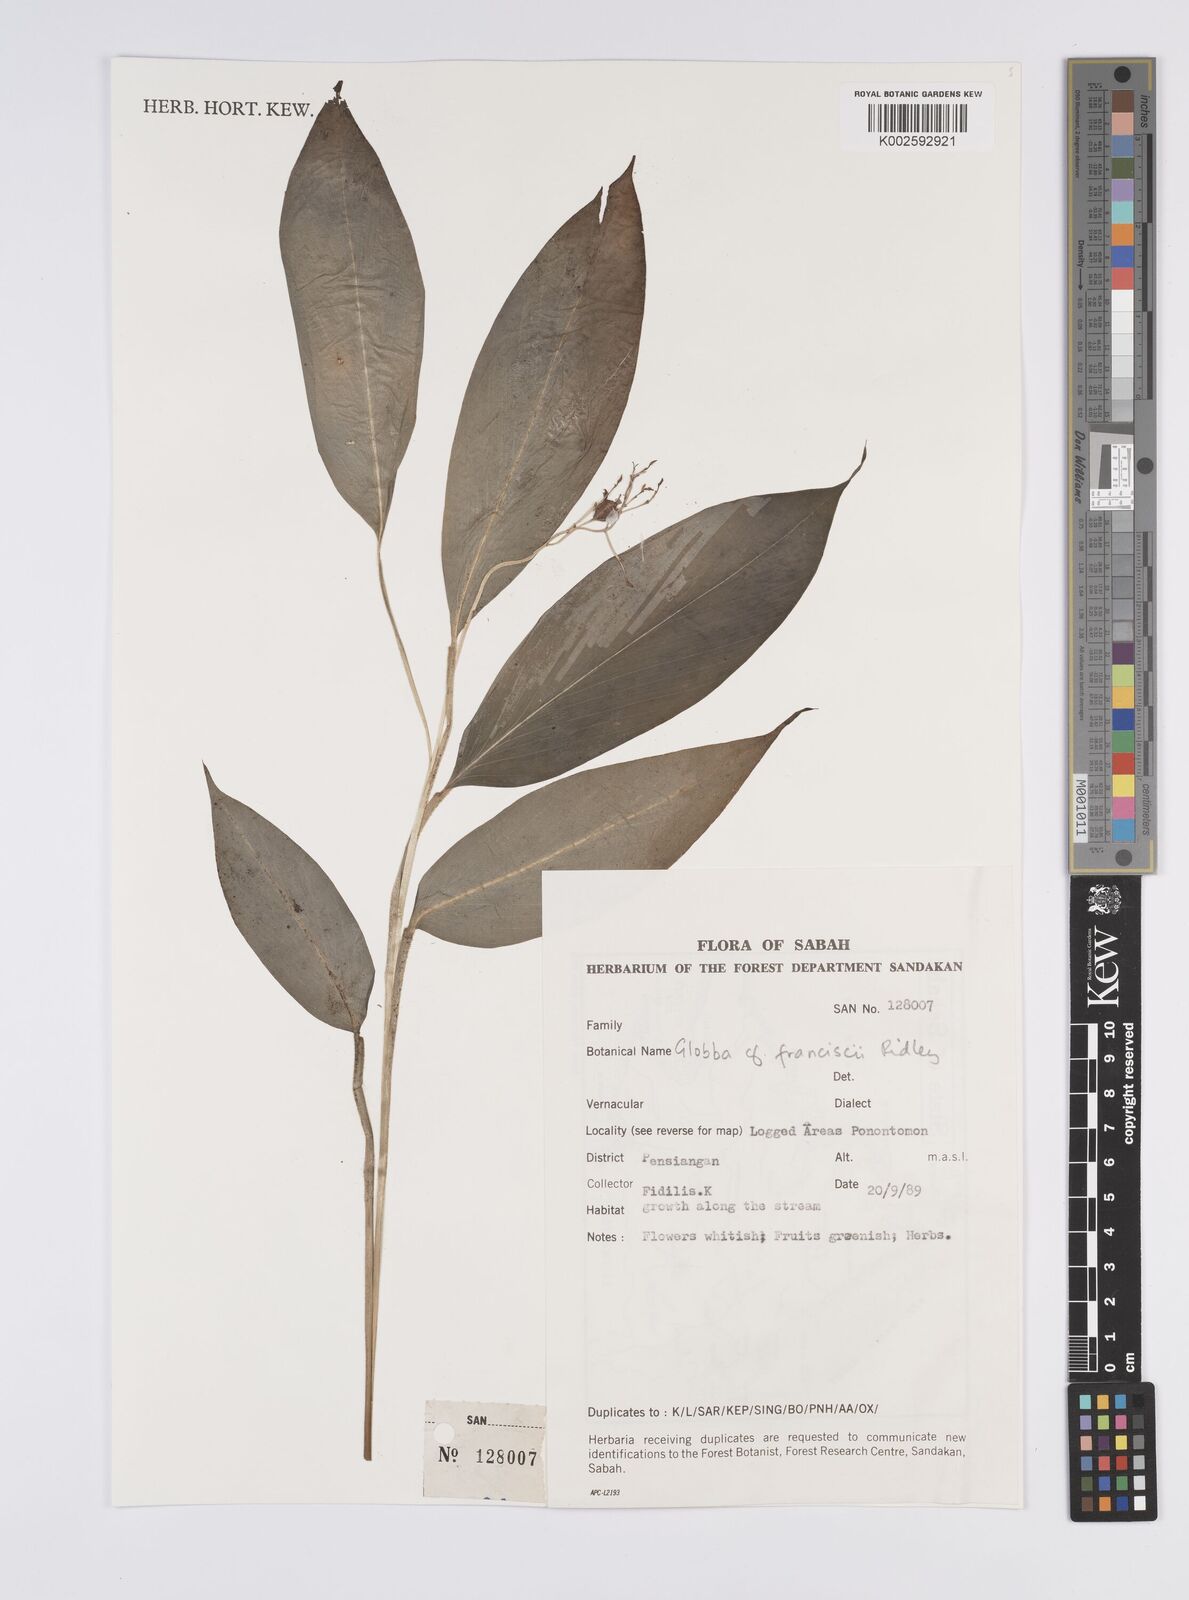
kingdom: Plantae
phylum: Tracheophyta
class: Liliopsida
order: Zingiberales
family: Zingiberaceae
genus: Globba
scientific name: Globba francisci
